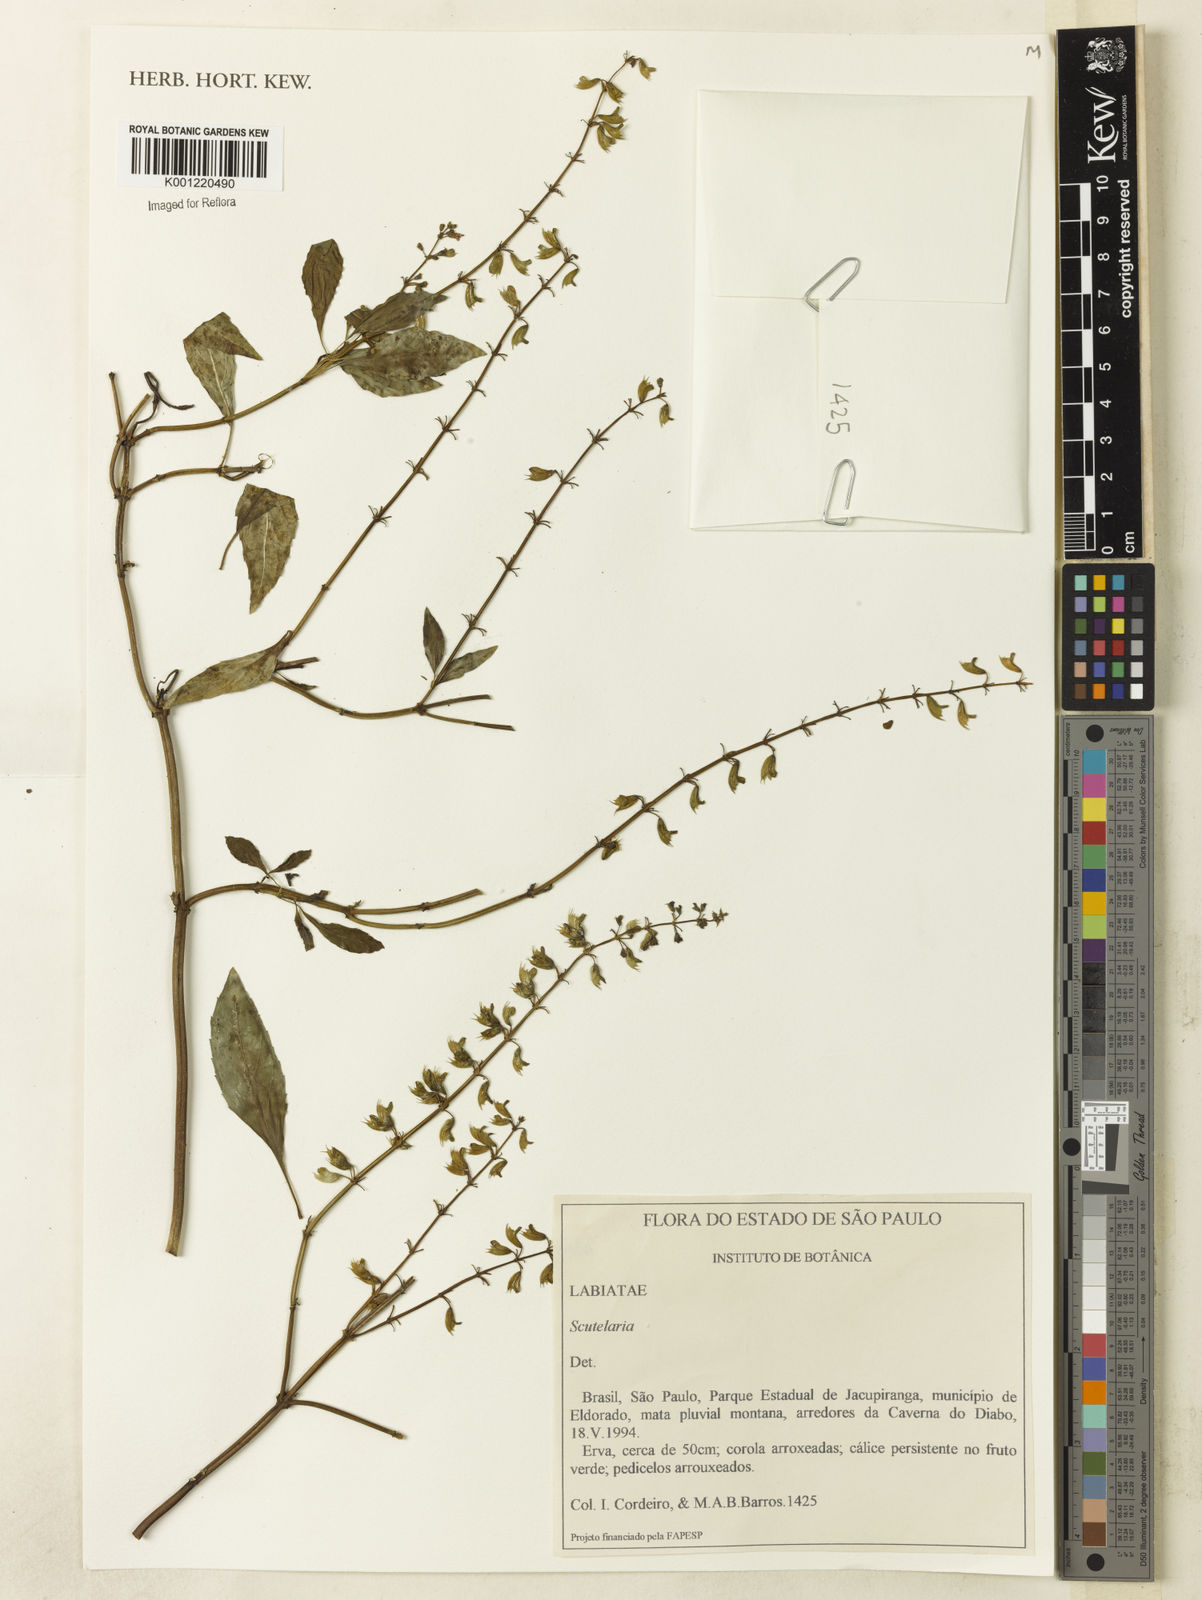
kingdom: Plantae
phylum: Tracheophyta
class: Magnoliopsida
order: Lamiales
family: Lamiaceae
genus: Scutellaria
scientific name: Scutellaria
